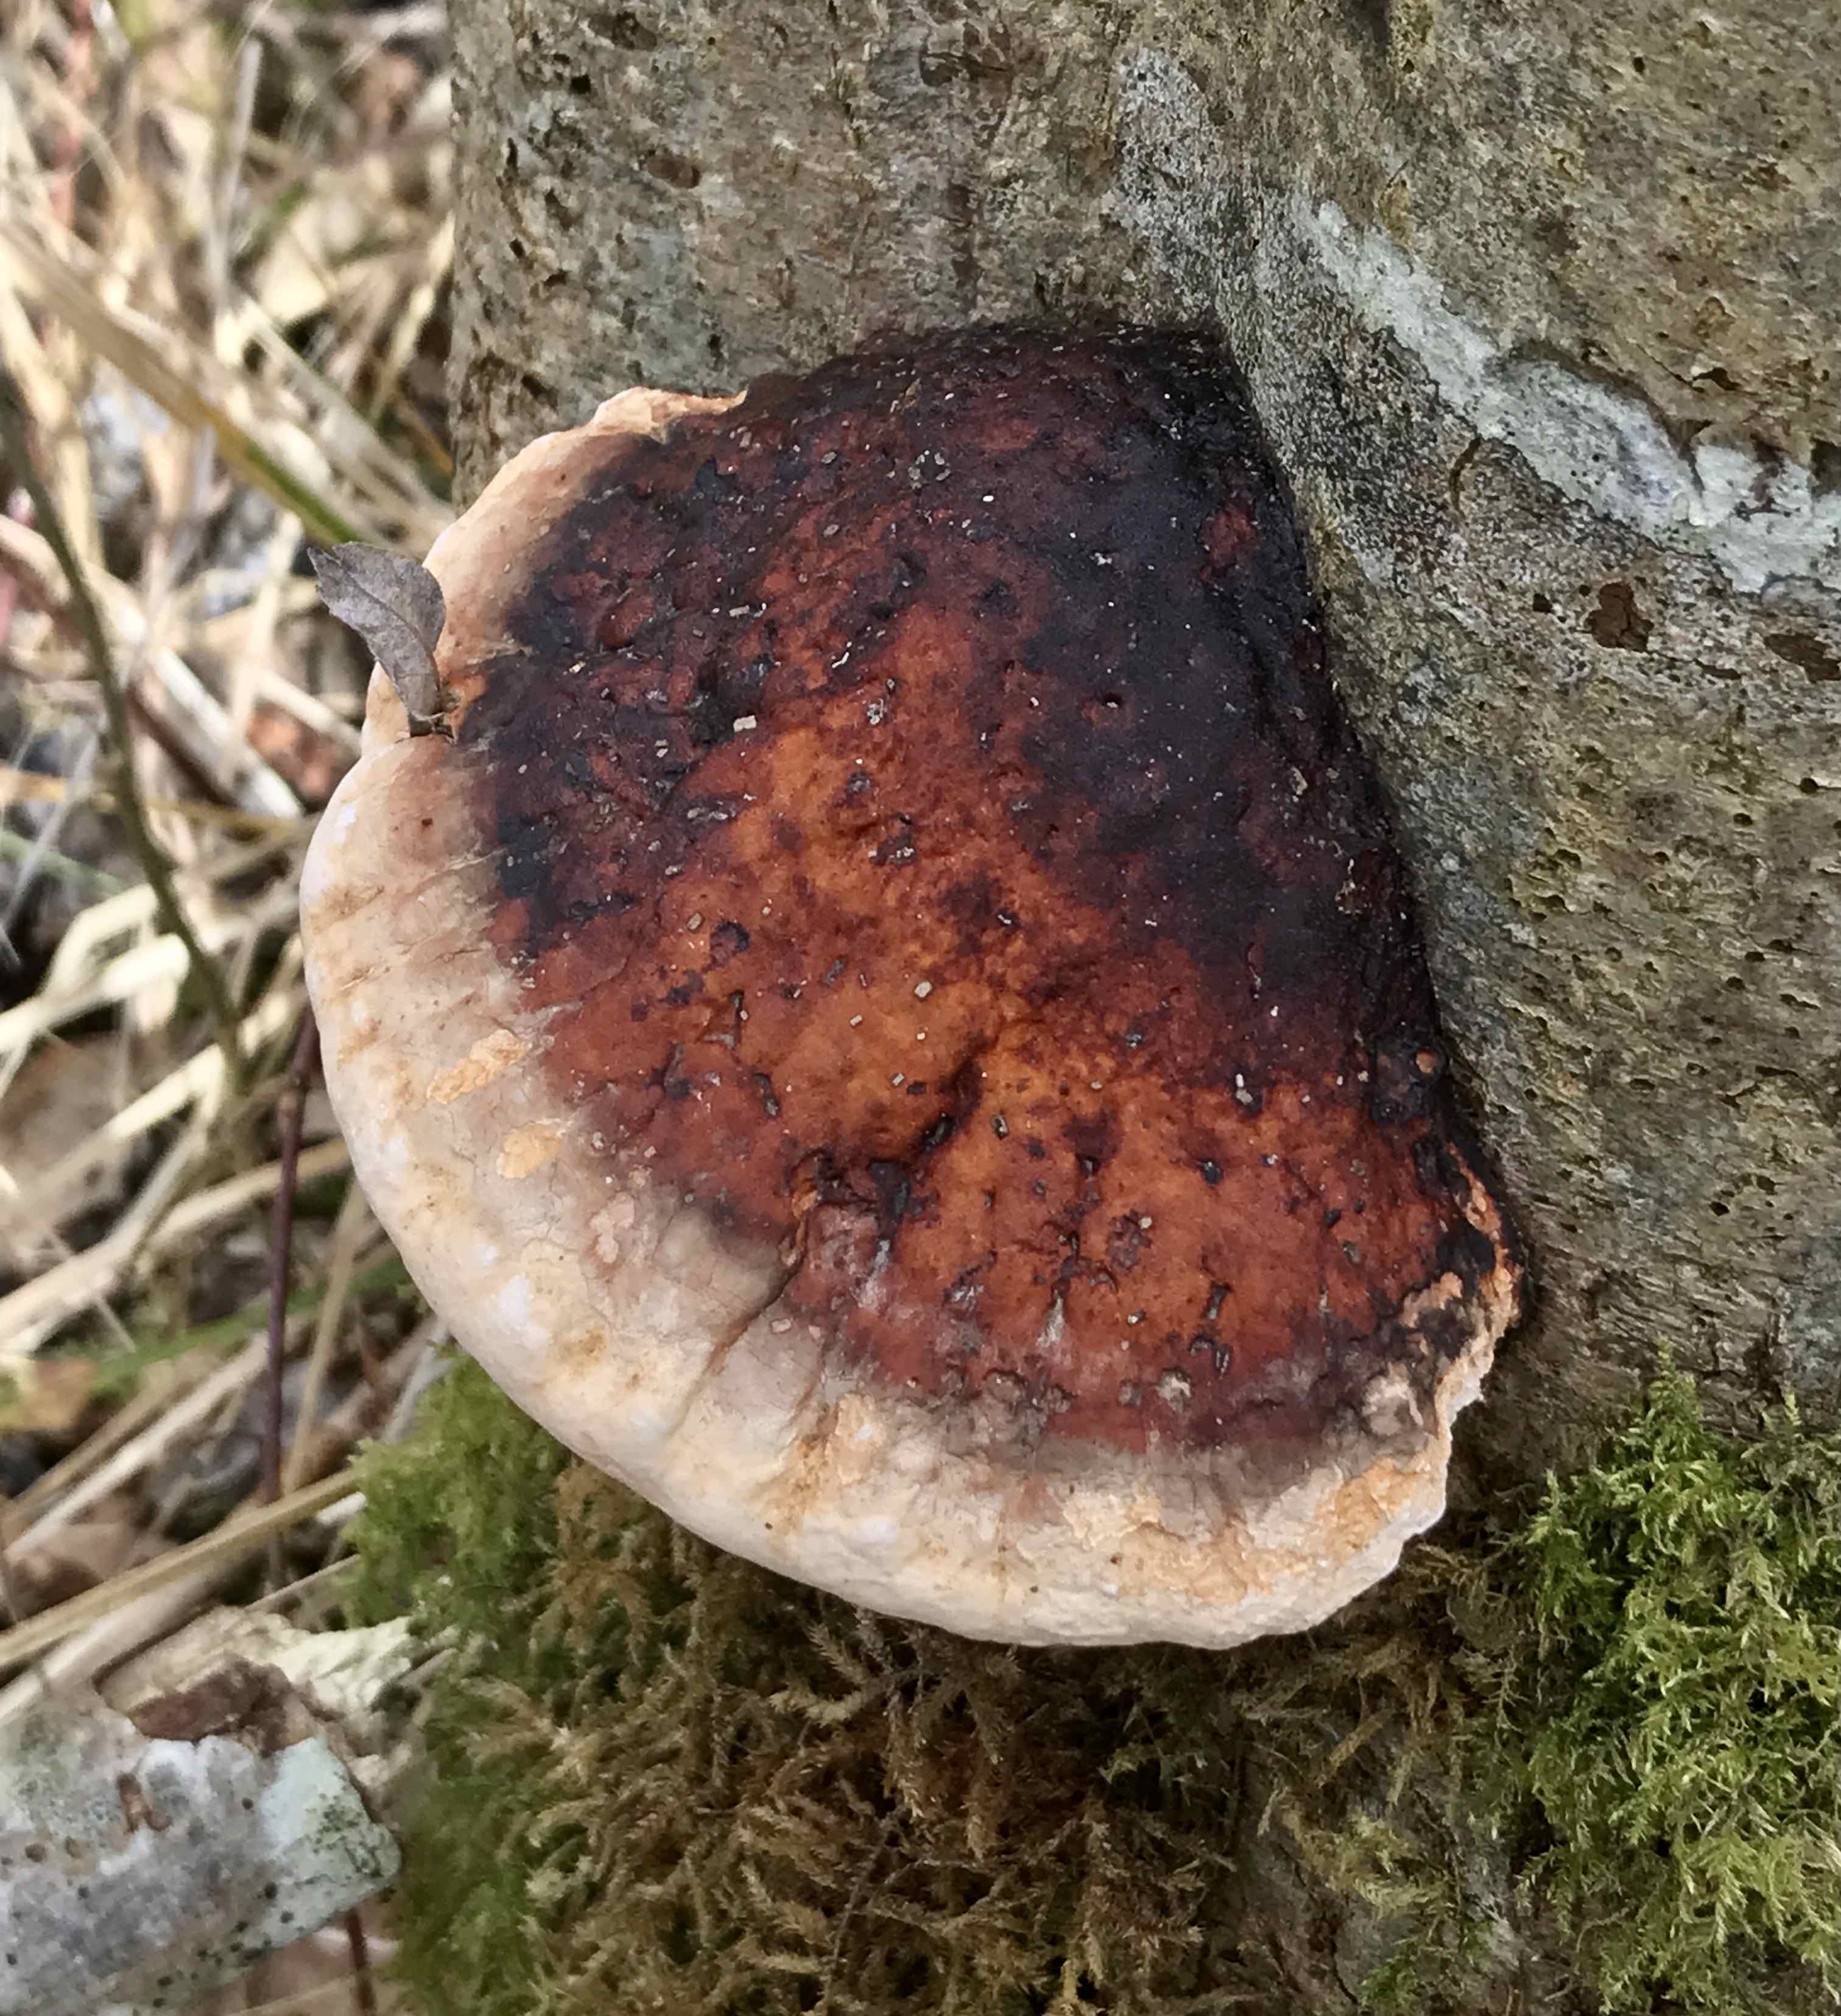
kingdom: Fungi
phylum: Basidiomycota
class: Agaricomycetes
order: Polyporales
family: Fomitopsidaceae
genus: Fomitopsis
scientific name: Fomitopsis pinicola
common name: randbæltet hovporesvamp
